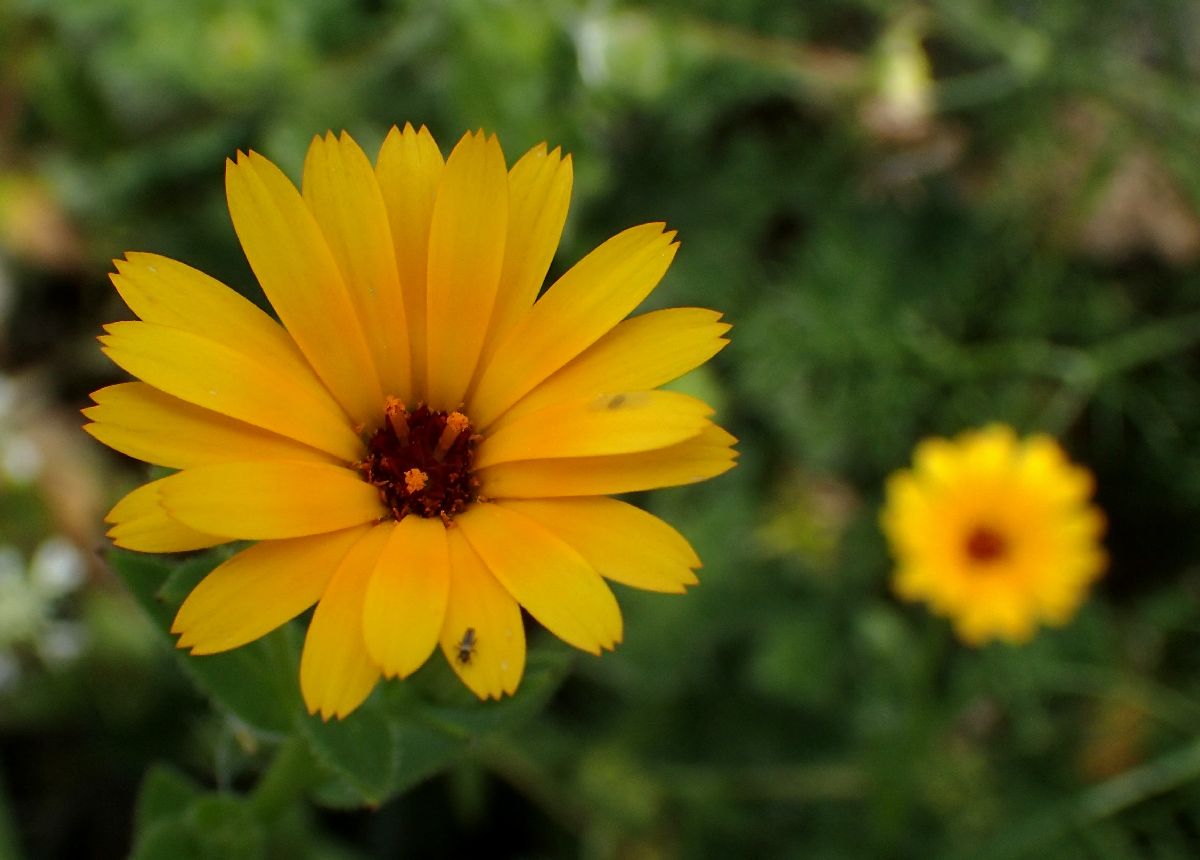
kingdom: Plantae
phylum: Tracheophyta
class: Magnoliopsida
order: Asterales
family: Asteraceae
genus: Calendula
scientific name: Calendula arvensis
